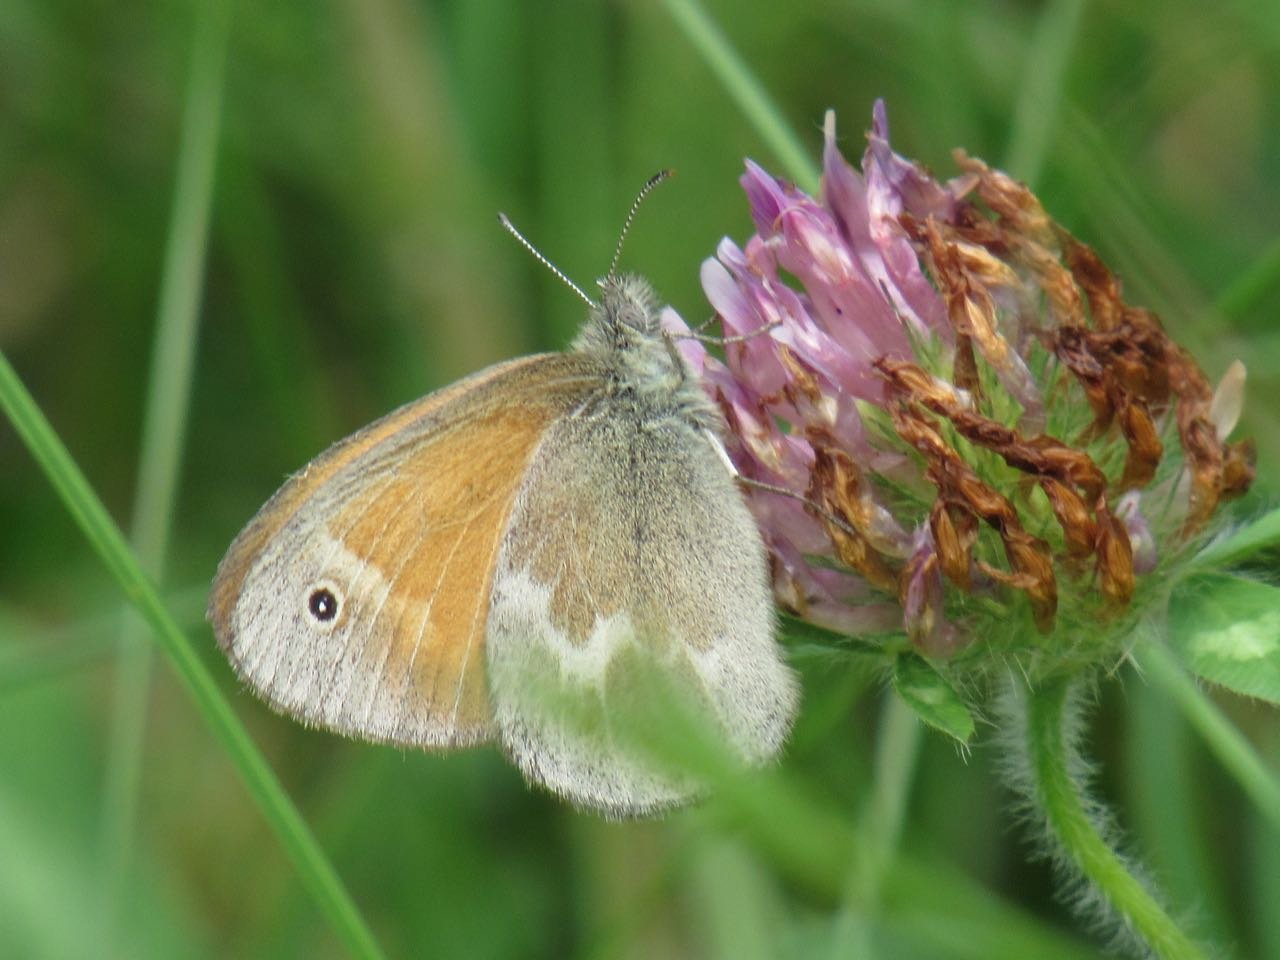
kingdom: Animalia
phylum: Arthropoda
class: Insecta
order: Lepidoptera
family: Nymphalidae
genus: Coenonympha
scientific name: Coenonympha tullia
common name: Large Heath
